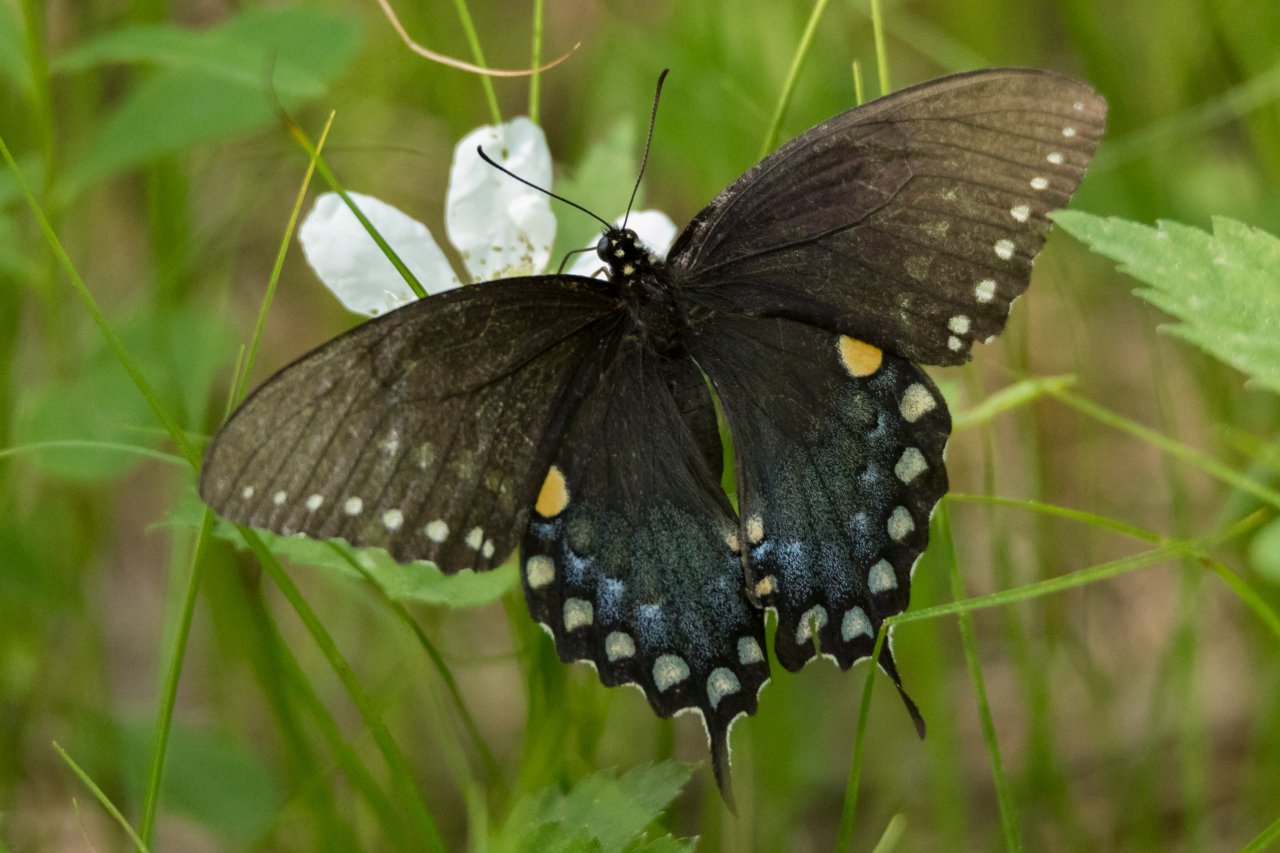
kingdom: Animalia
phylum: Arthropoda
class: Insecta
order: Lepidoptera
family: Papilionidae
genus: Pterourus
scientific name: Pterourus troilus
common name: Spicebush Swallowtail
